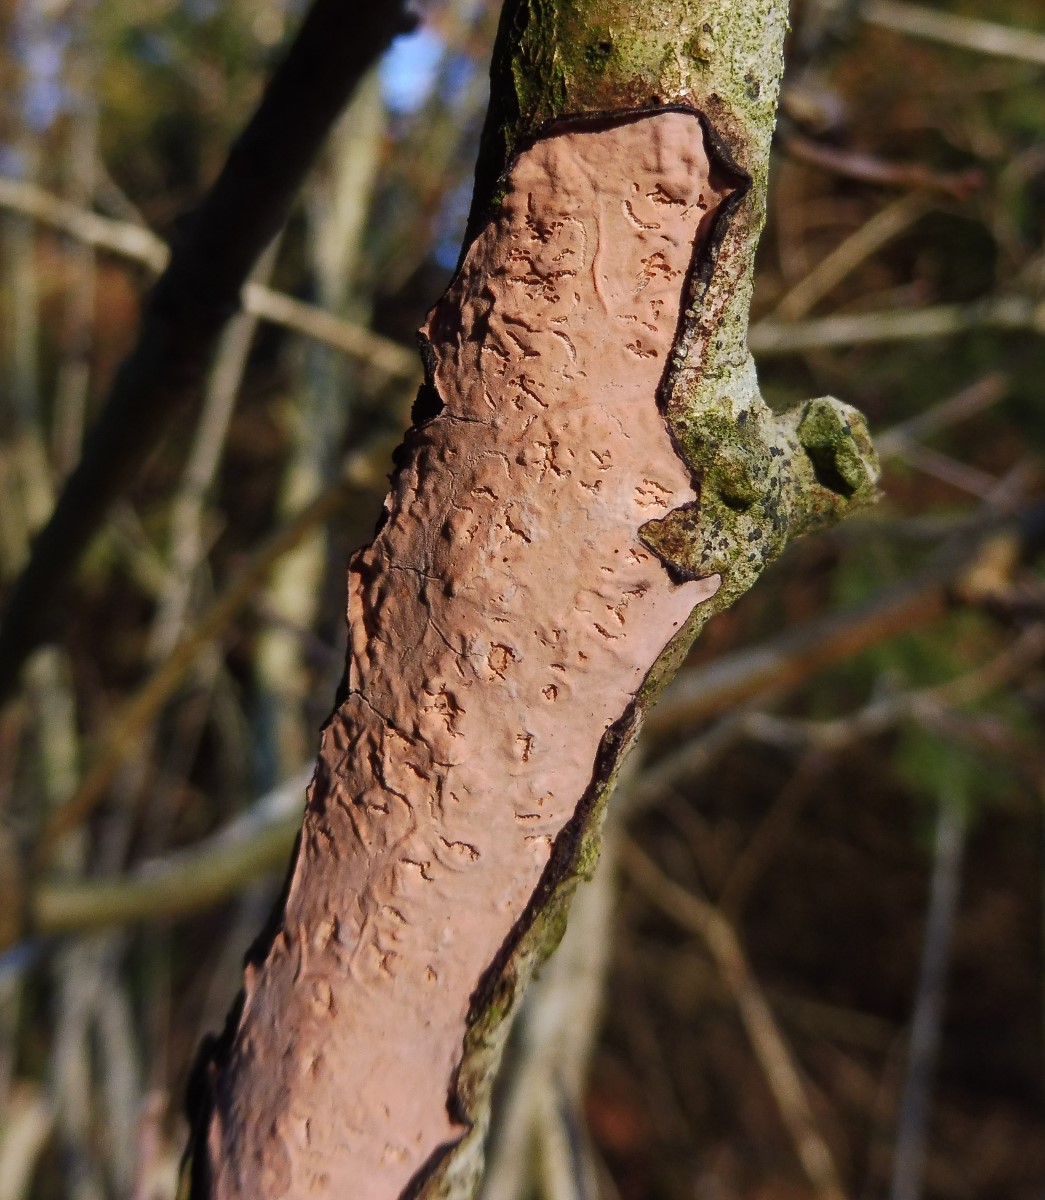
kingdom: Fungi
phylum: Basidiomycota
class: Agaricomycetes
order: Russulales
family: Peniophoraceae
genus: Peniophora
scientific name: Peniophora quercina
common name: ege-voksskind
